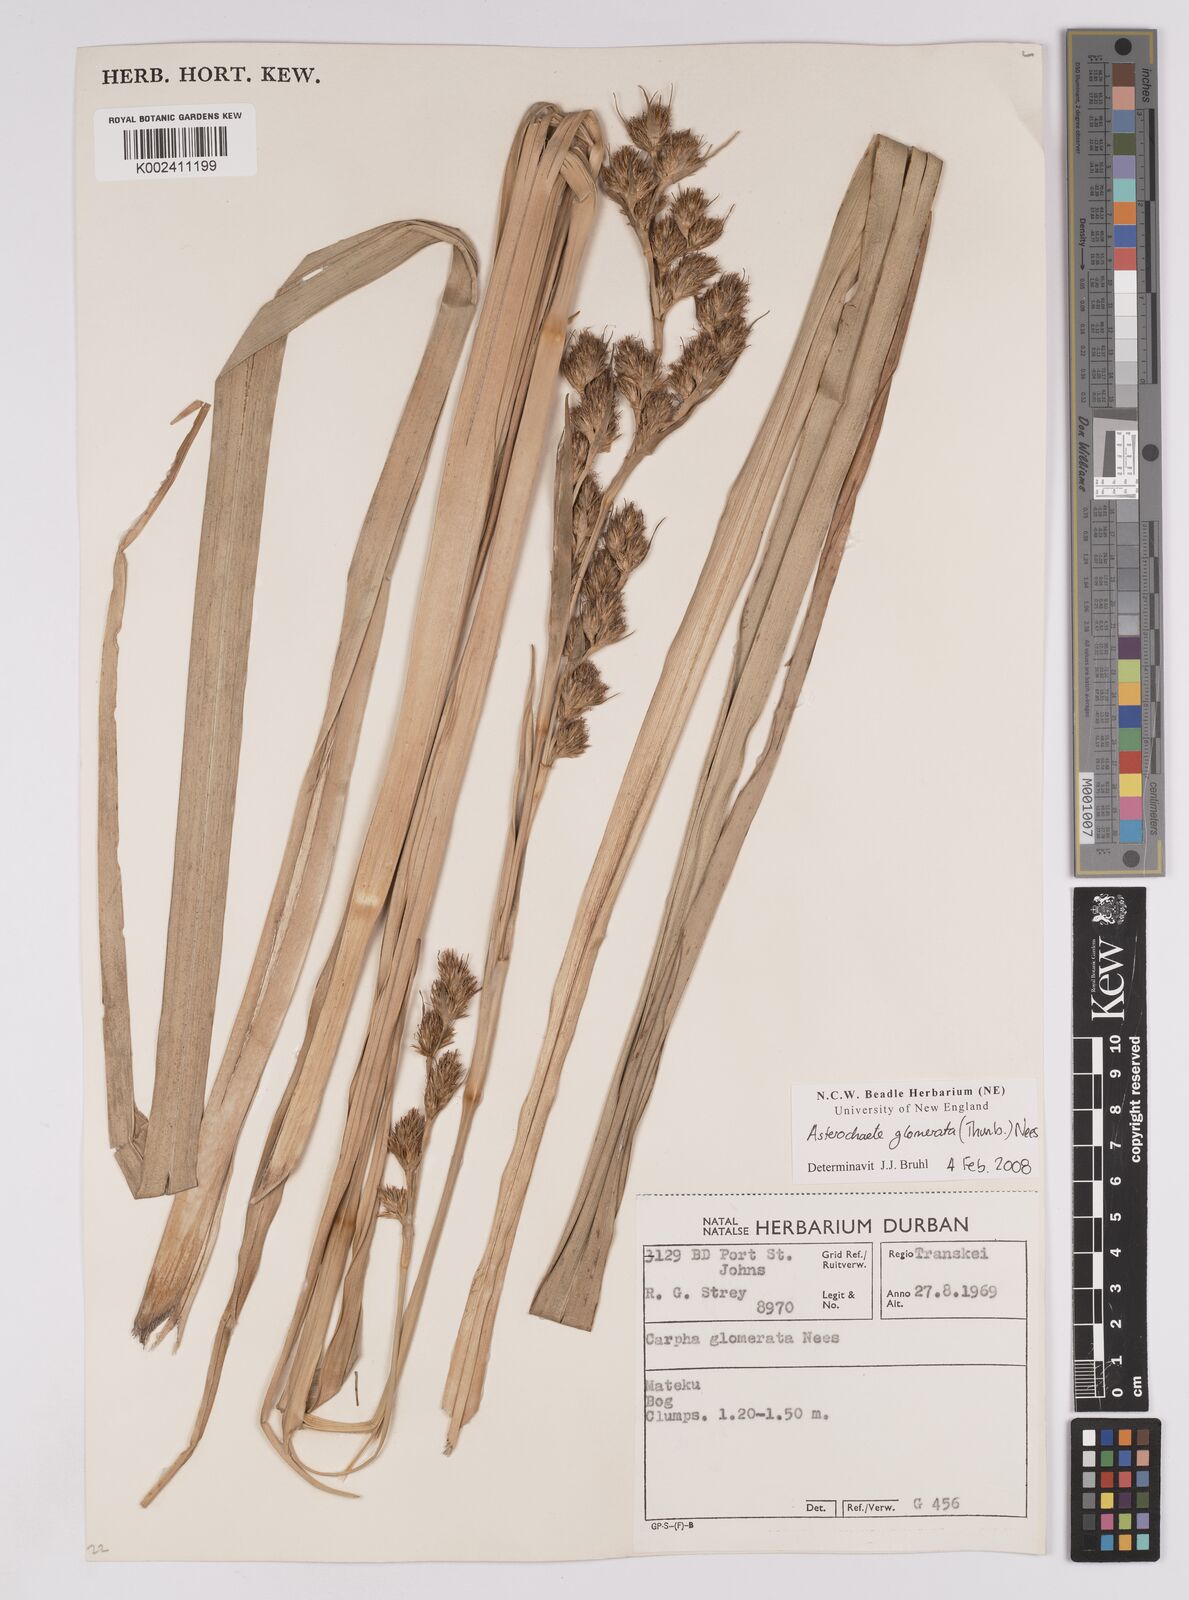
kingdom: Plantae
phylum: Tracheophyta
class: Liliopsida
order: Poales
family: Cyperaceae
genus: Carpha
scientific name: Carpha glomerata
